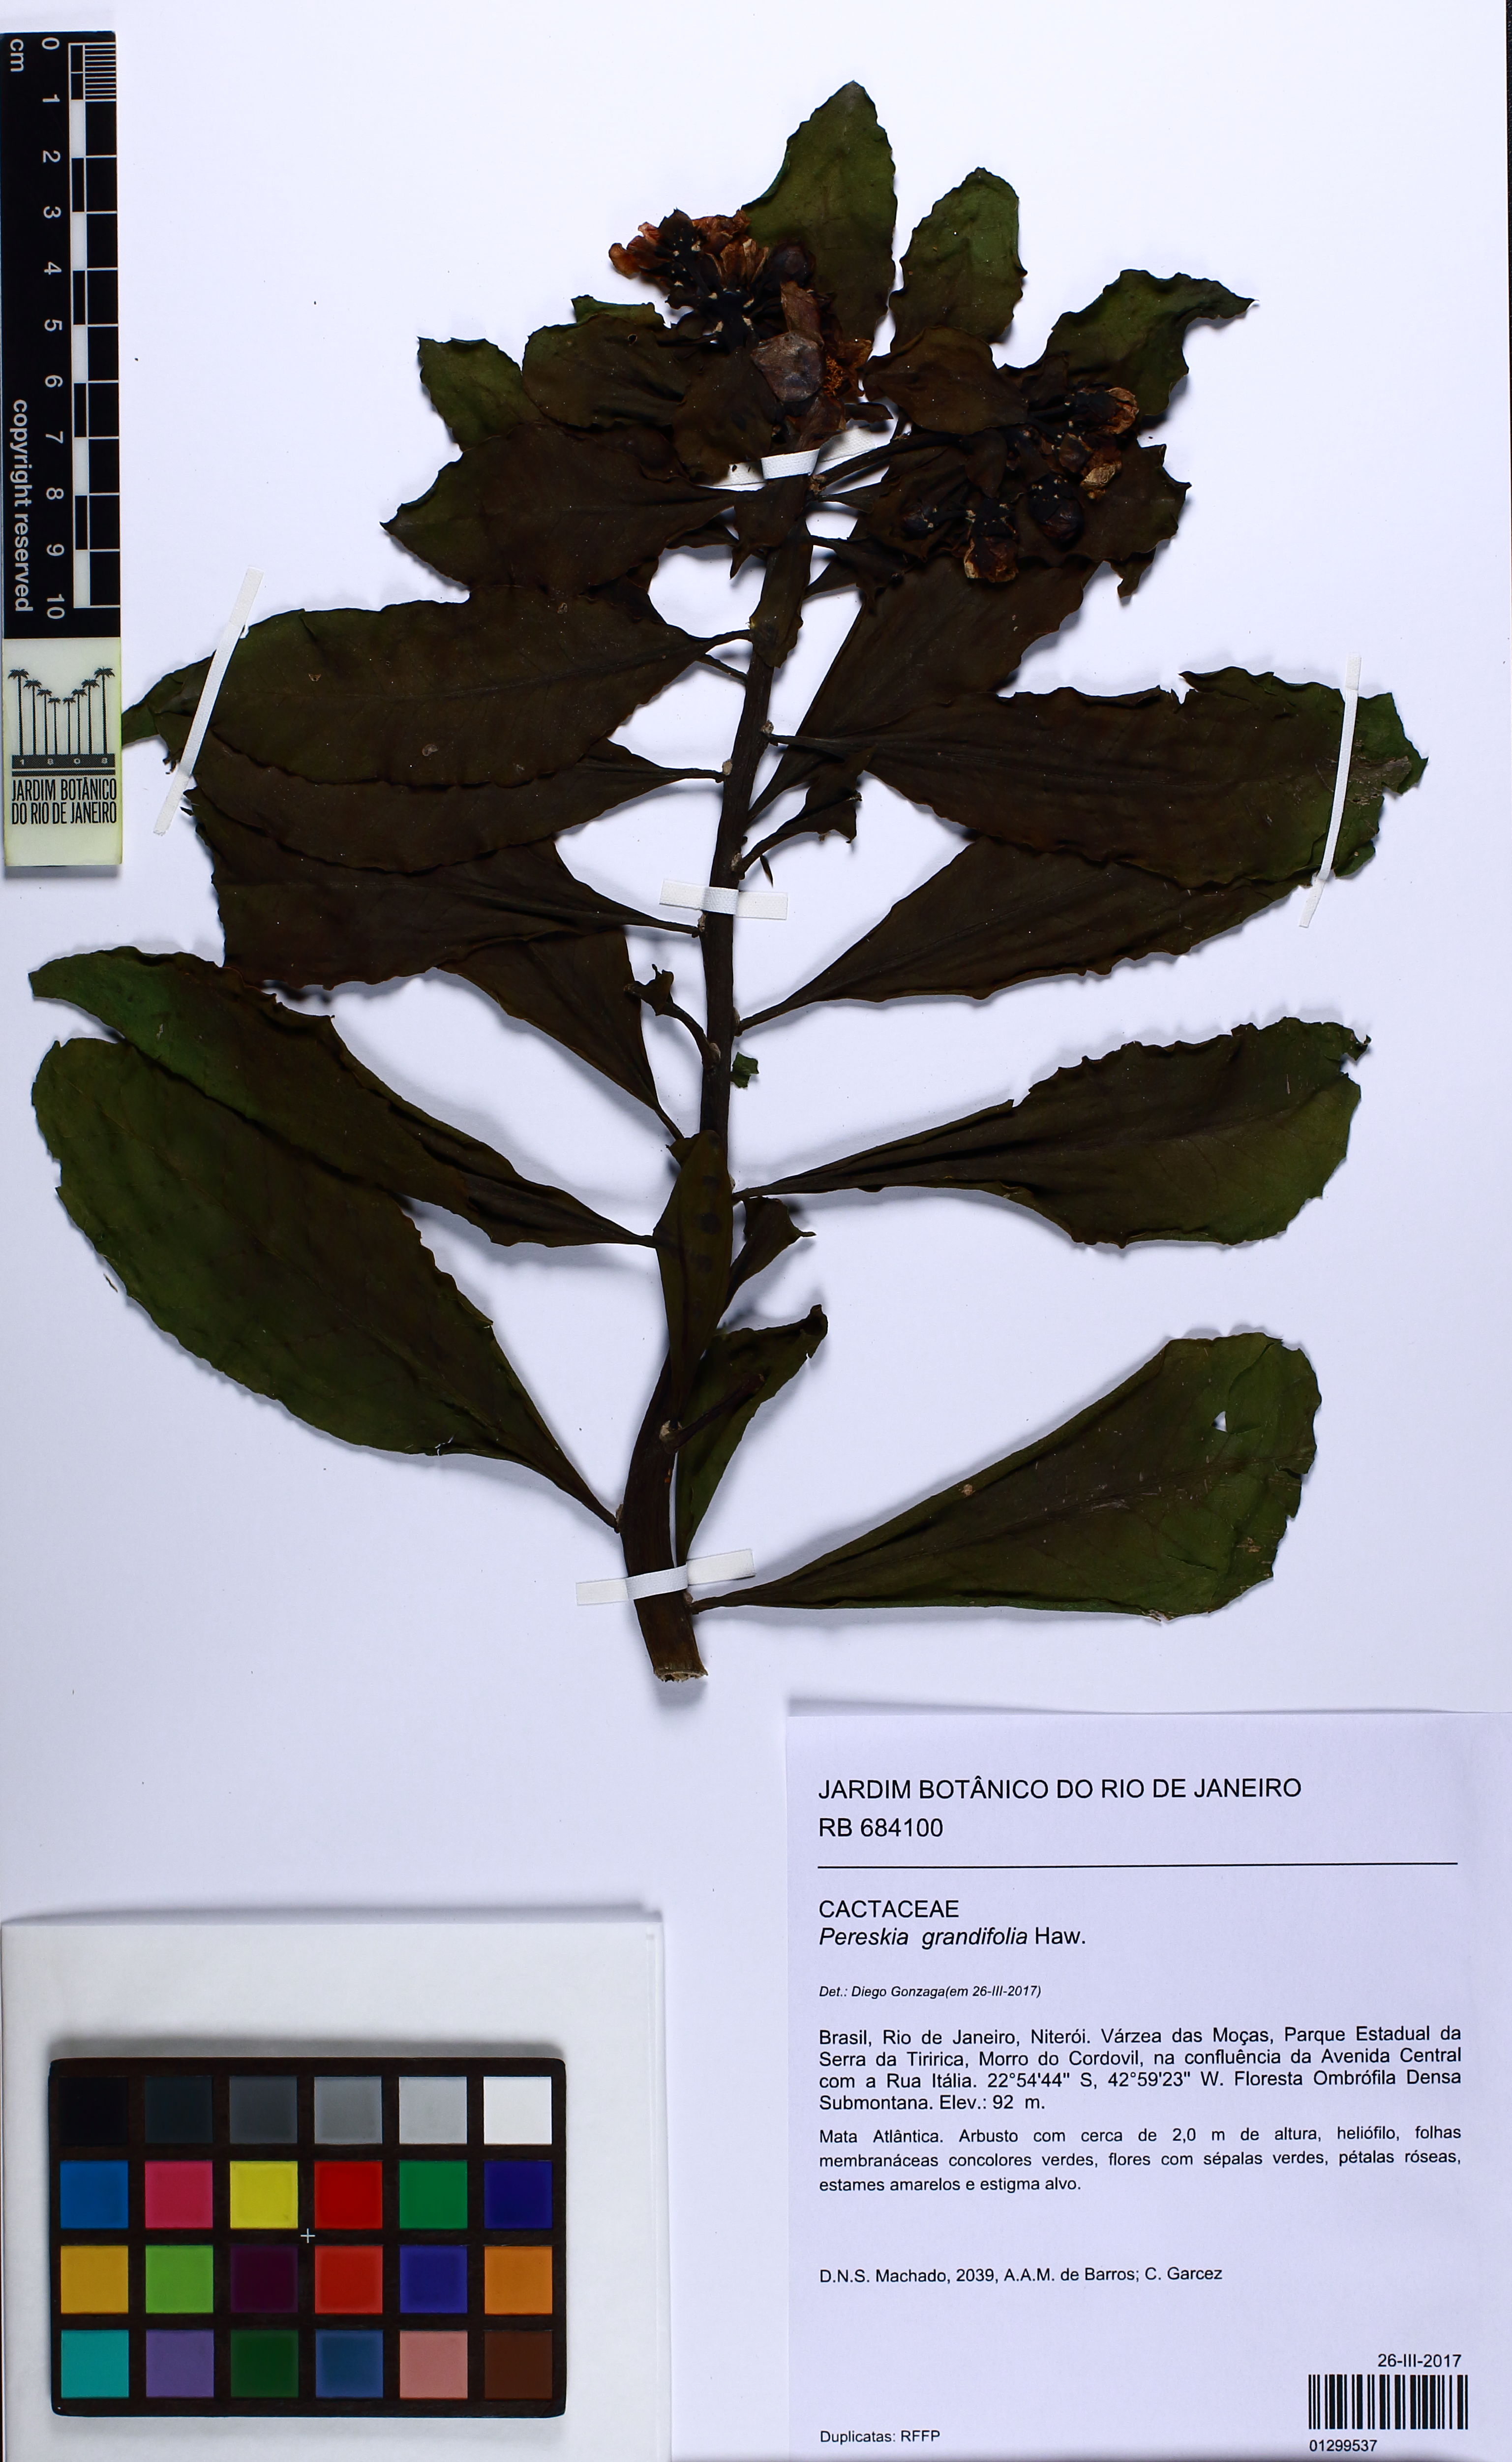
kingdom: Plantae
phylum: Tracheophyta
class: Magnoliopsida
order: Caryophyllales
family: Cactaceae
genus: Pereskia
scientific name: Pereskia grandifolia
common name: Rose cactus
